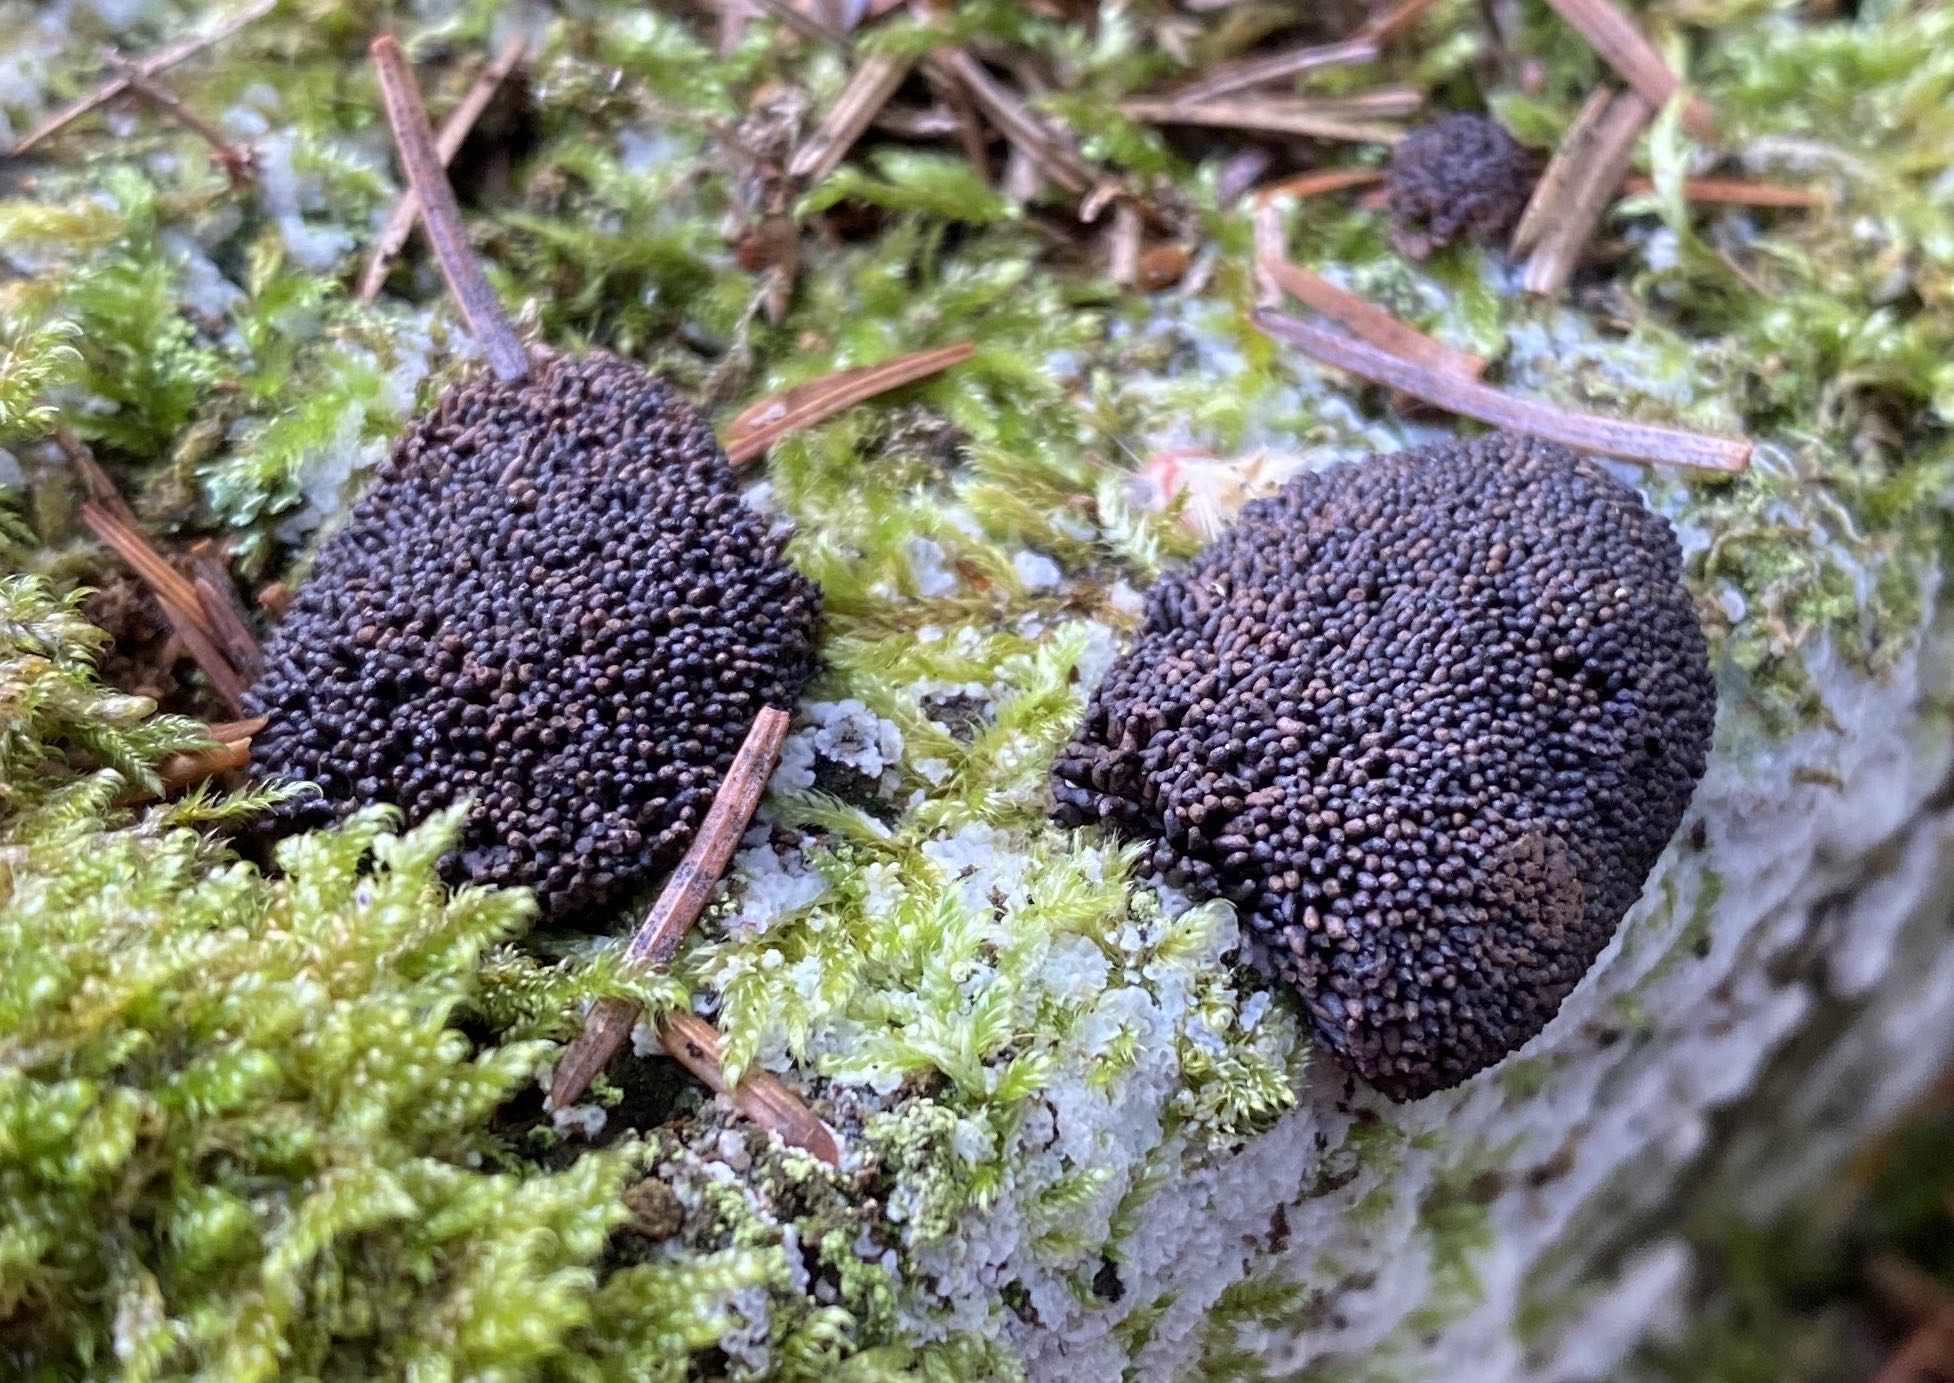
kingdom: Protozoa
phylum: Mycetozoa
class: Myxomycetes
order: Cribrariales
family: Tubiferaceae
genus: Tubifera
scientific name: Tubifera ferruginosa
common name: kanel-støvrør
